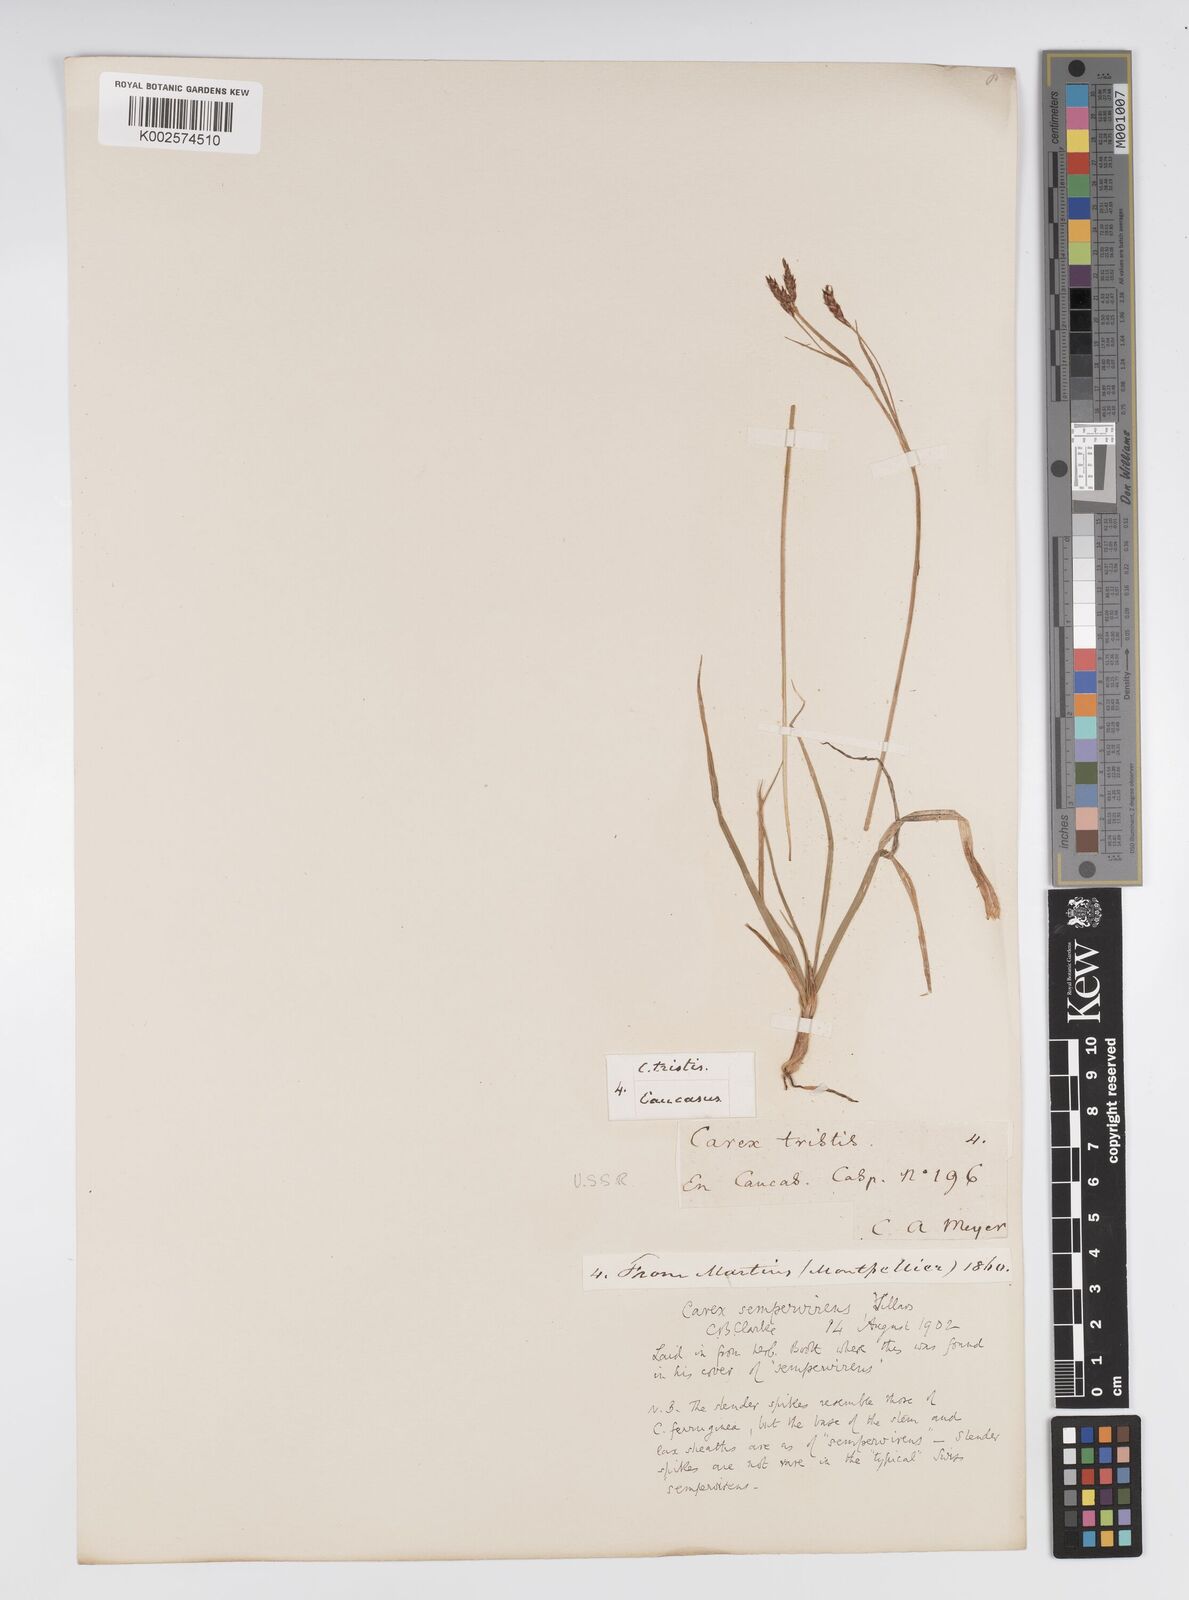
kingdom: Plantae
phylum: Tracheophyta
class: Liliopsida
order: Poales
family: Cyperaceae
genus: Carex
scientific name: Carex sempervirens
